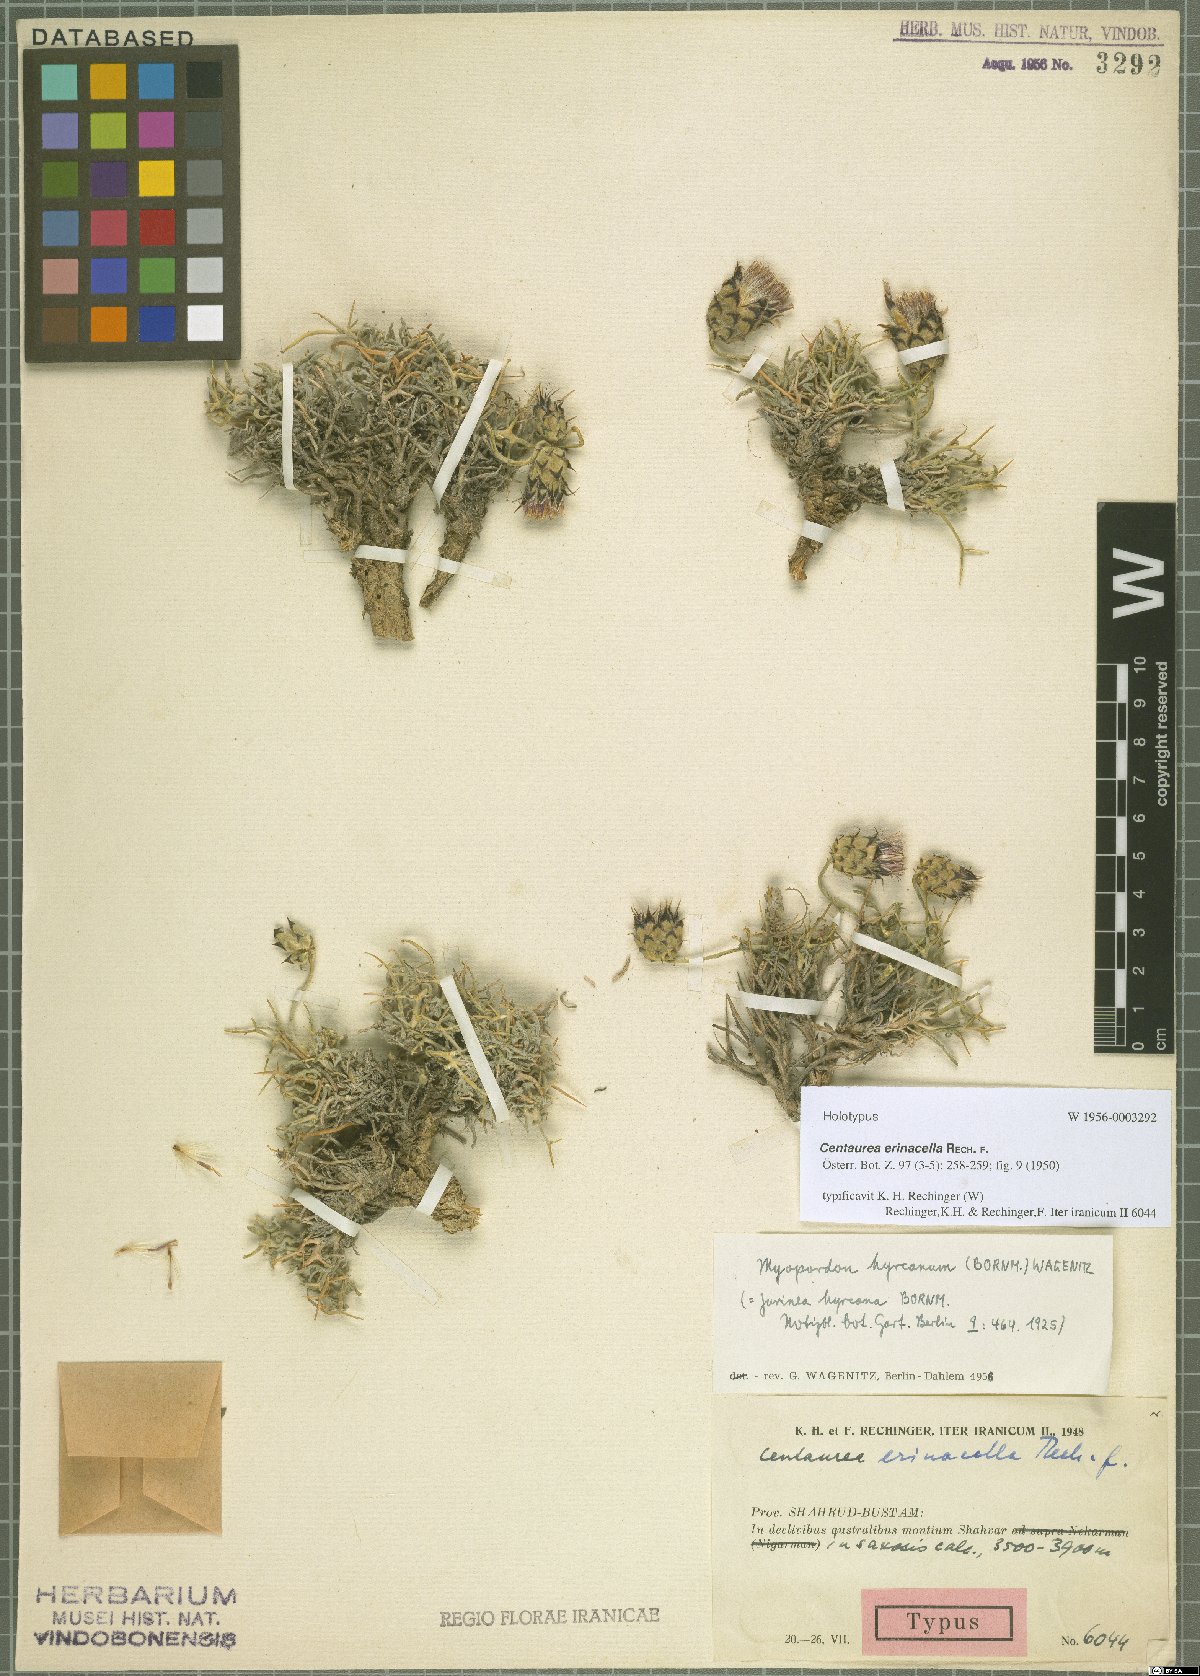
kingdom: Plantae
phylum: Tracheophyta
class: Magnoliopsida
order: Asterales
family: Asteraceae
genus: Centaurea
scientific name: Centaurea erinacella
